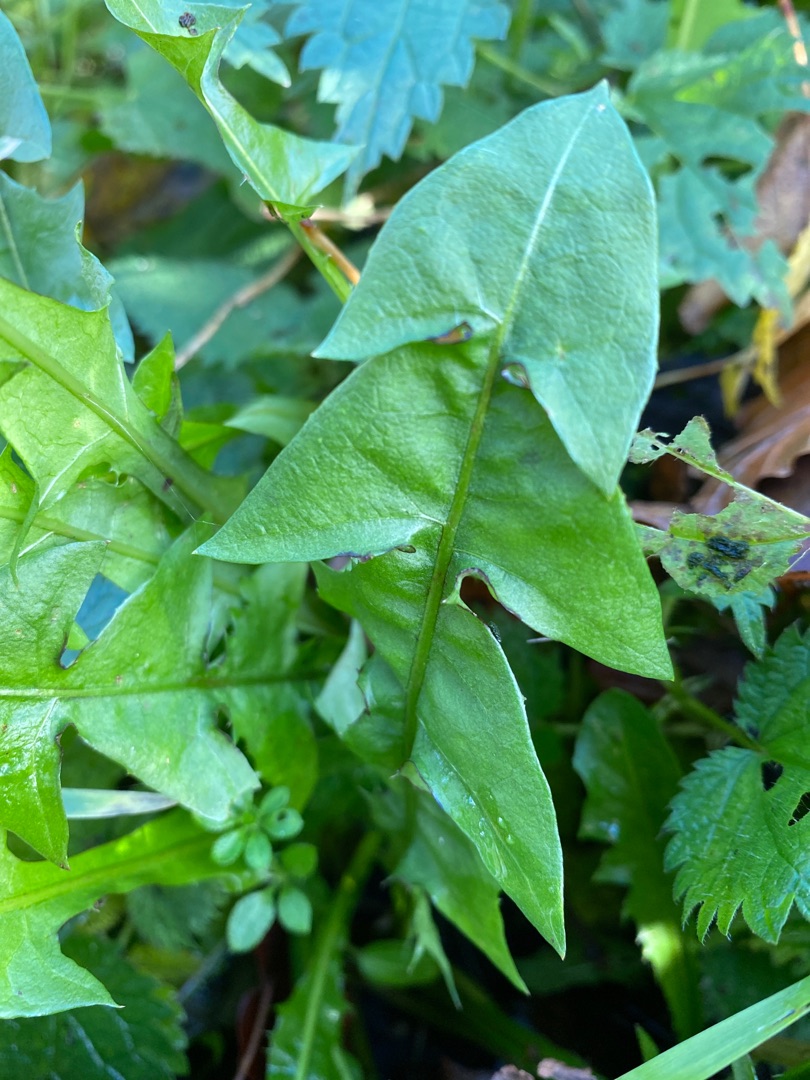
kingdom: Plantae
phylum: Tracheophyta
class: Magnoliopsida
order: Asterales
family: Asteraceae
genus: Taraxacum
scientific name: Taraxacum
